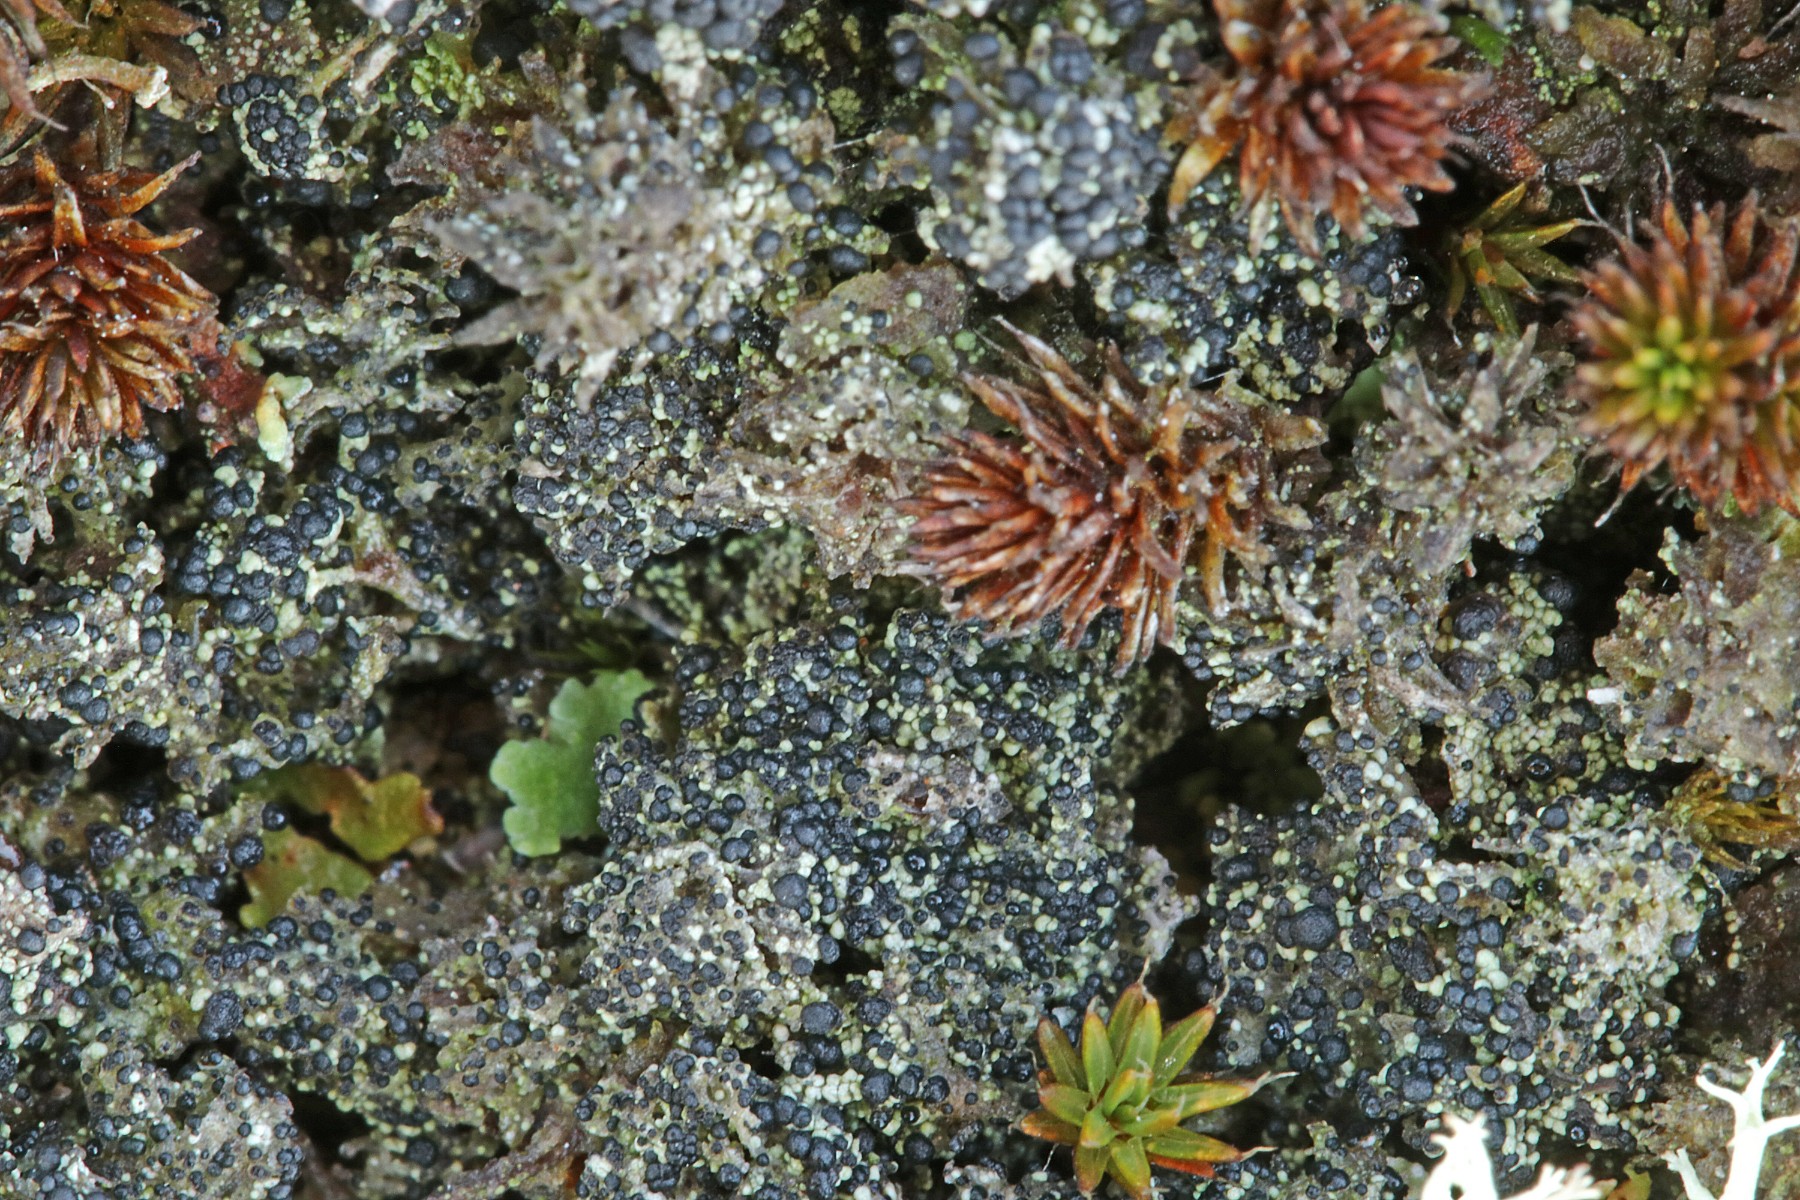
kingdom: Fungi
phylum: Ascomycota
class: Lecanoromycetes
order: Lecanorales
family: Byssolomataceae
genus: Micarea
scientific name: Micarea lignaria
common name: tørve-knaplav
